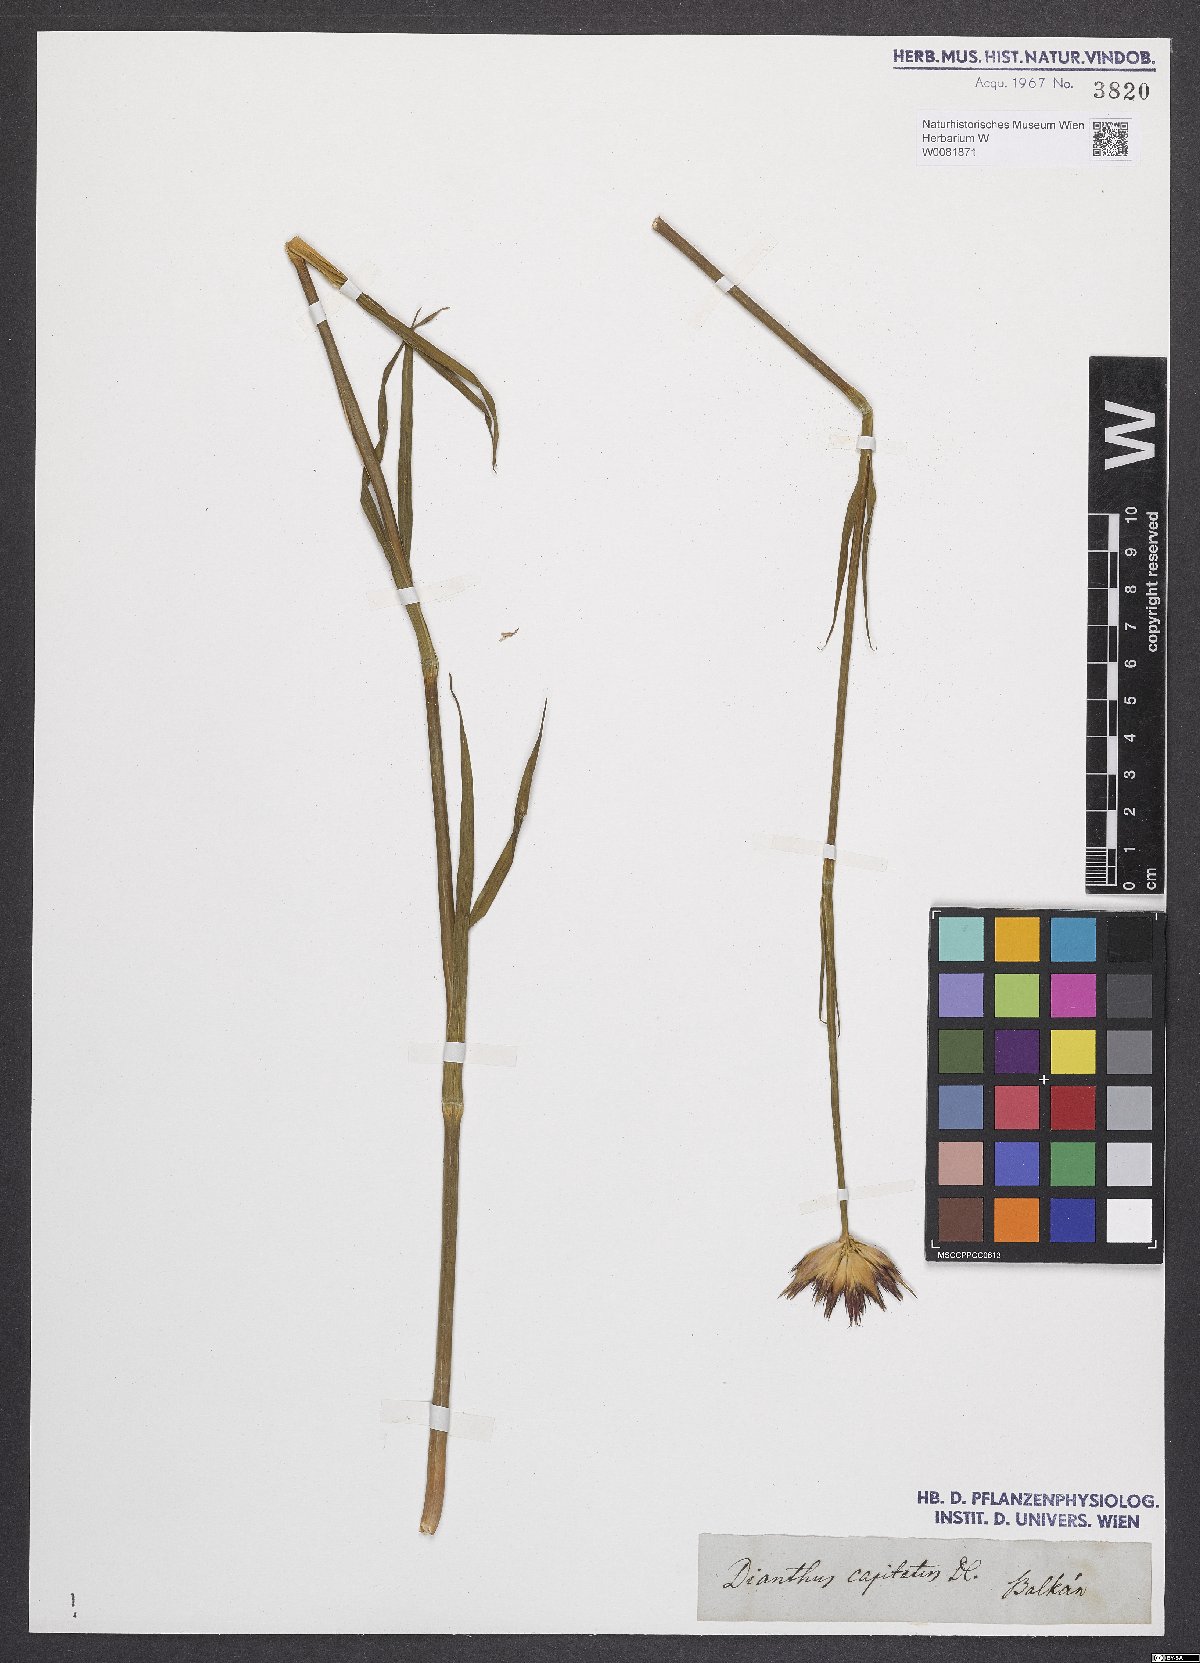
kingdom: Plantae
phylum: Tracheophyta
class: Magnoliopsida
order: Caryophyllales
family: Caryophyllaceae
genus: Dianthus
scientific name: Dianthus capitatus
